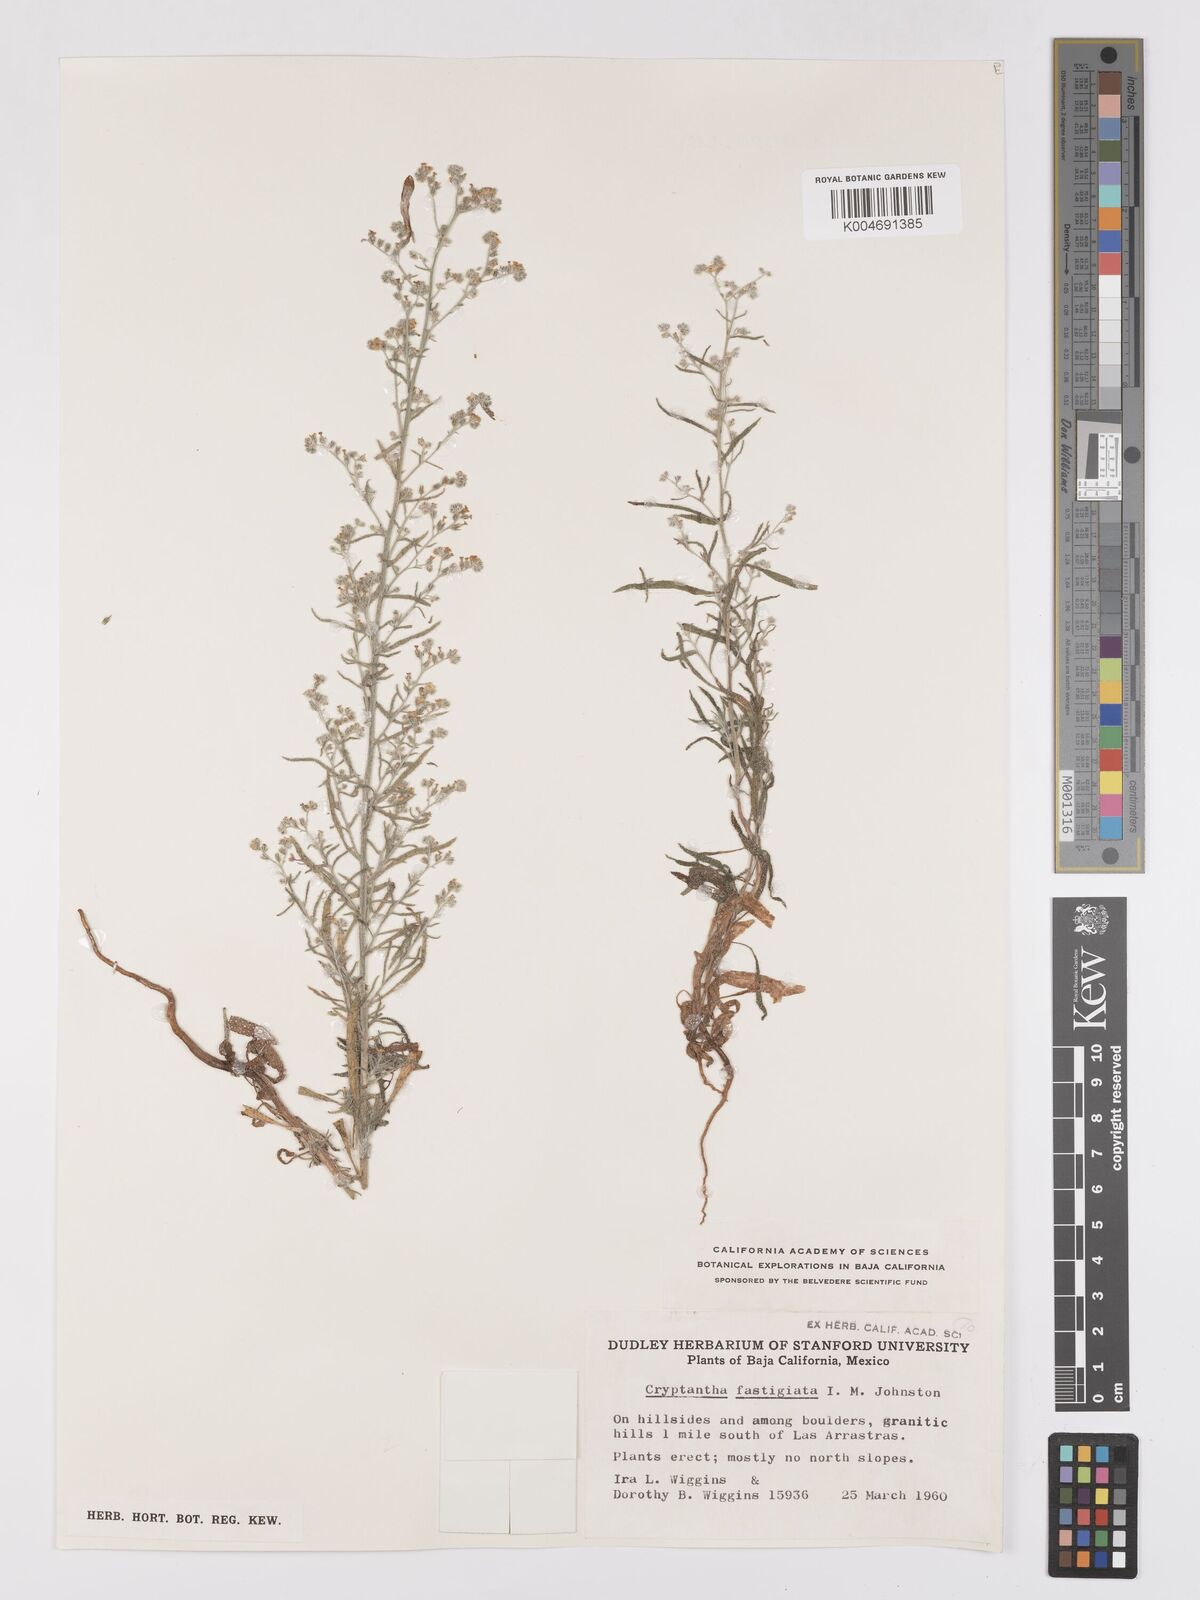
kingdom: Plantae
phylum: Tracheophyta
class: Magnoliopsida
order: Boraginales
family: Boraginaceae
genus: Johnstonella
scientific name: Johnstonella fastigiata
